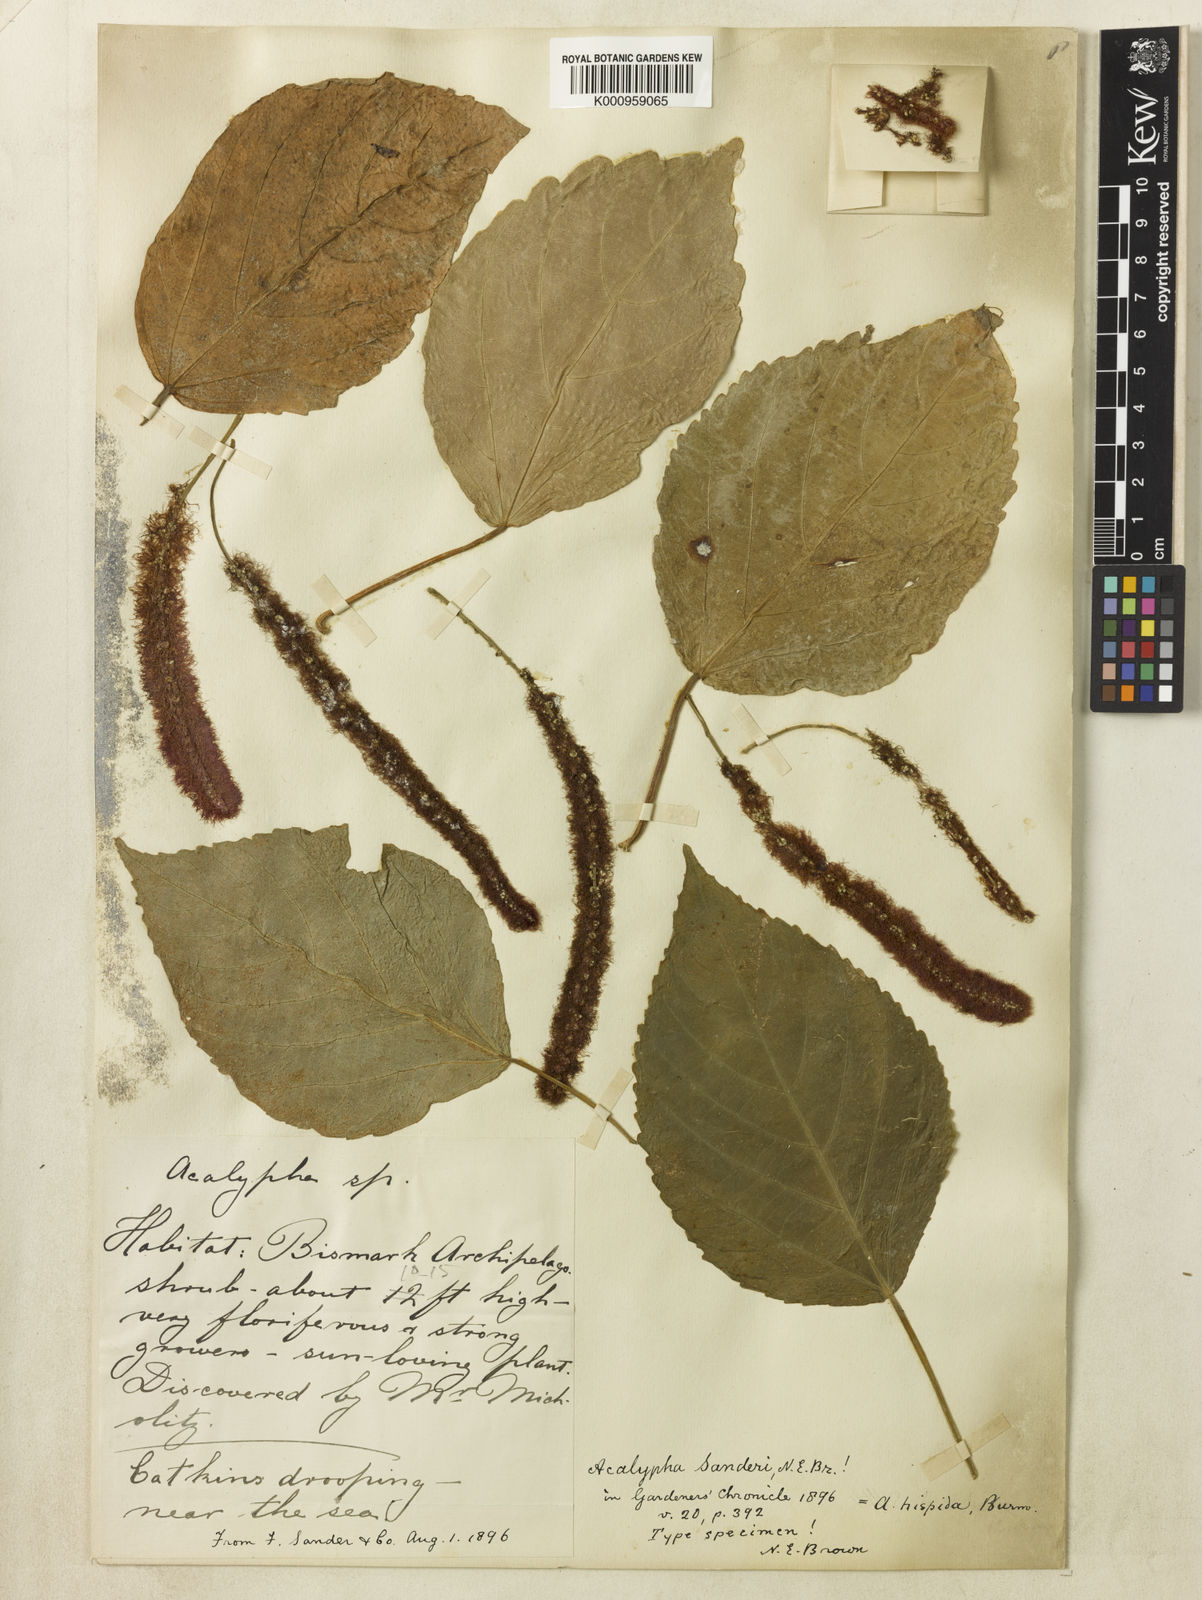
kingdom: Plantae
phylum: Tracheophyta
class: Magnoliopsida
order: Malpighiales
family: Euphorbiaceae
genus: Acalypha
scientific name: Acalypha hispida
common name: Chenilleplant
